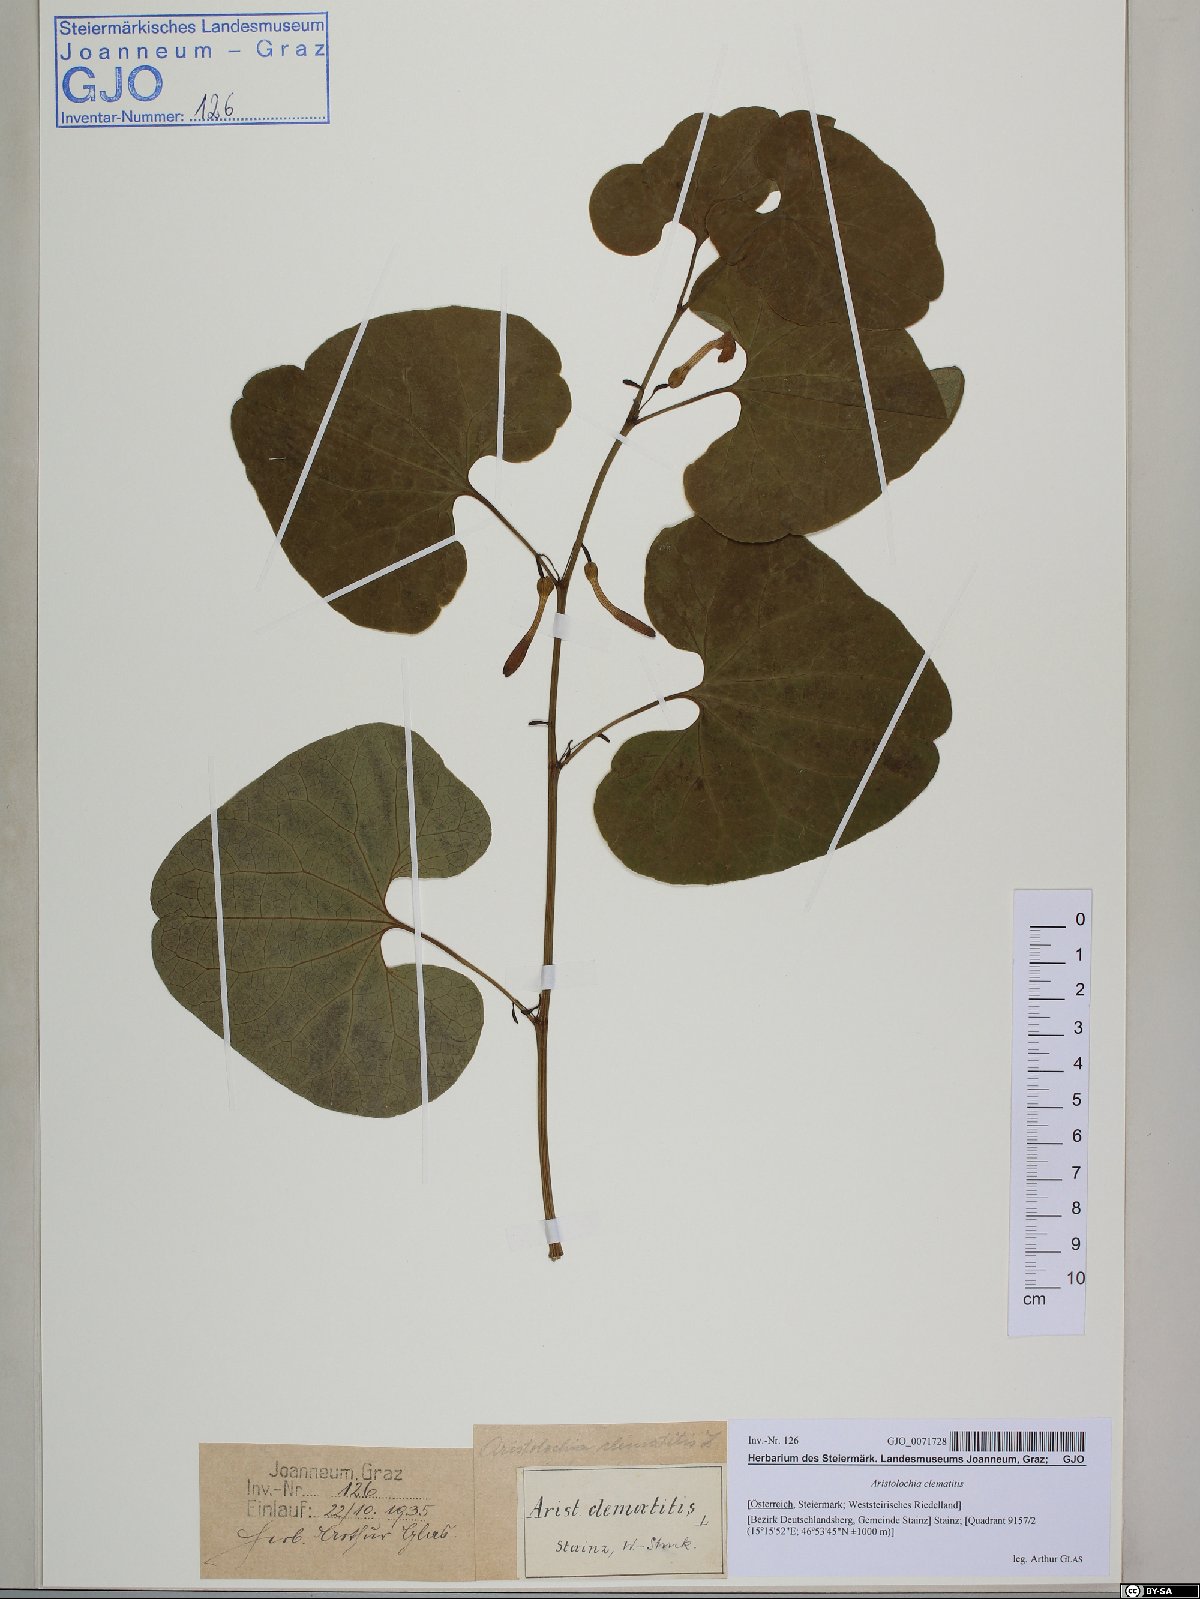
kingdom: Plantae
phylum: Tracheophyta
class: Magnoliopsida
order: Piperales
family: Aristolochiaceae
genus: Aristolochia
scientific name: Aristolochia clematitis
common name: Birthwort
